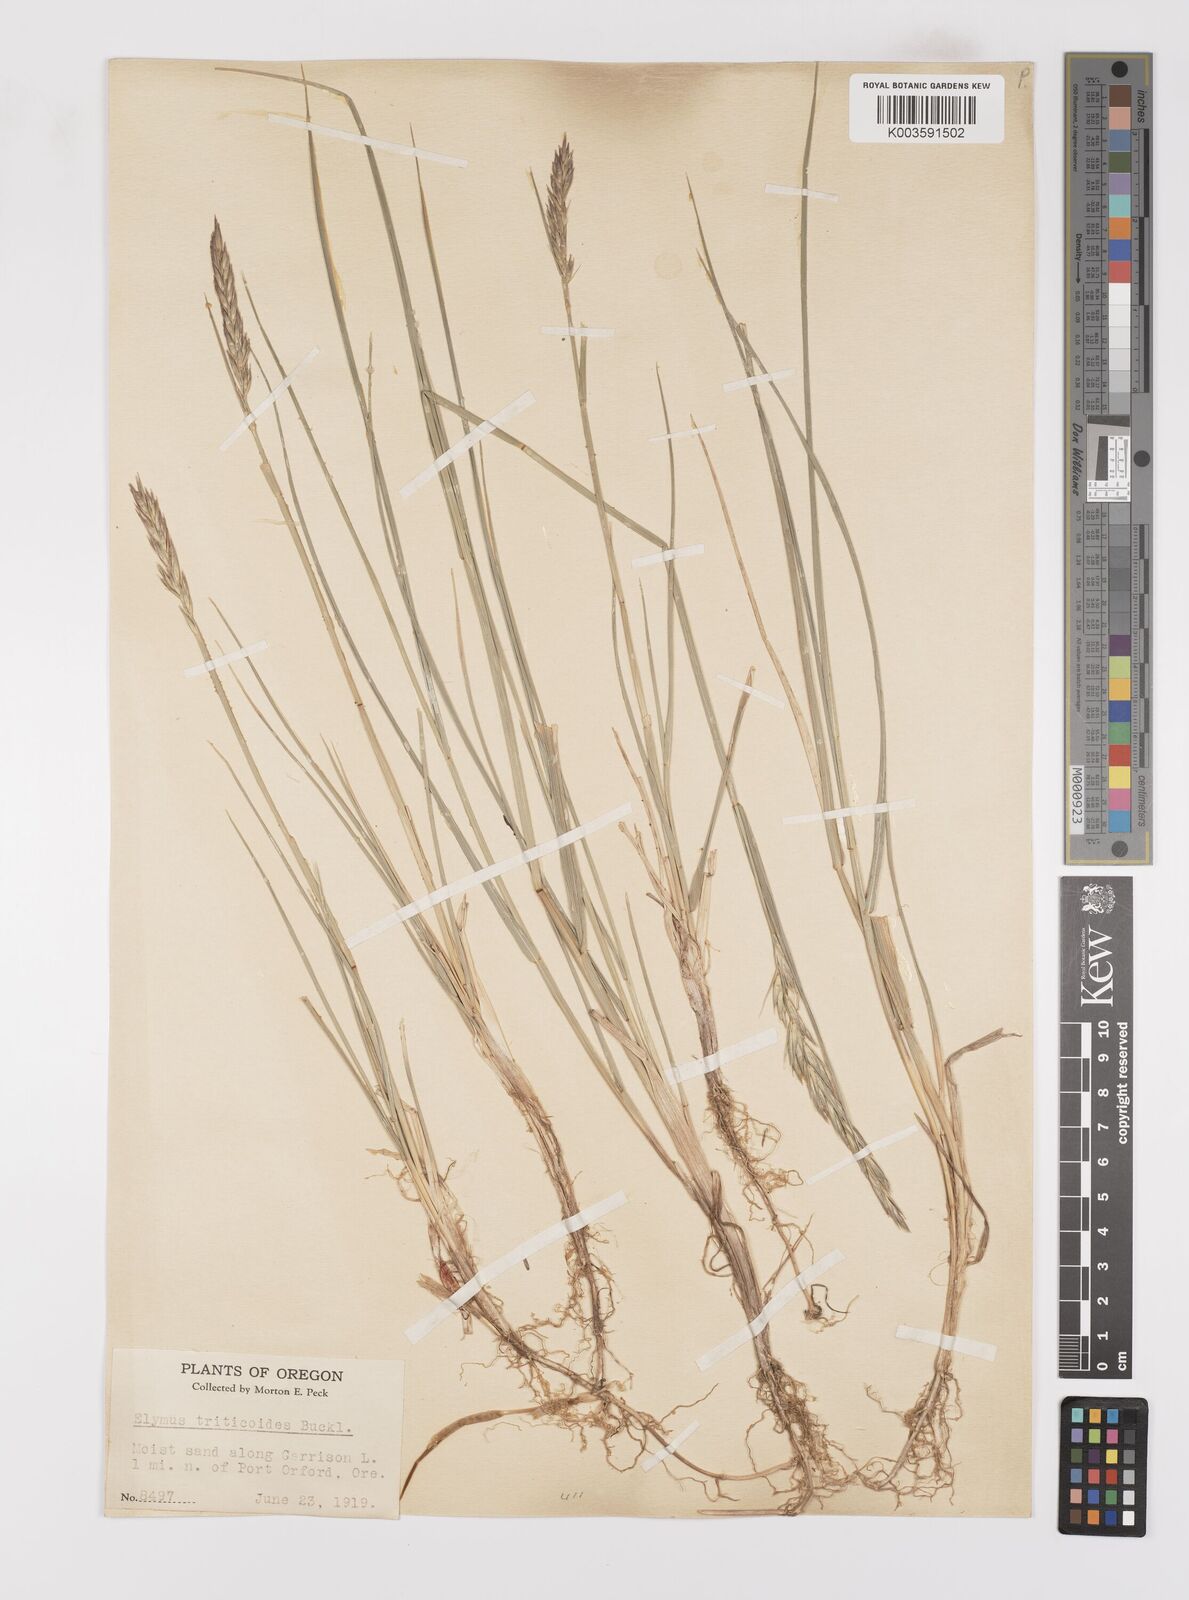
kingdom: Plantae
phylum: Tracheophyta
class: Liliopsida
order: Poales
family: Poaceae
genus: Leymus
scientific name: Leymus triticoides
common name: Beardless wild rye
